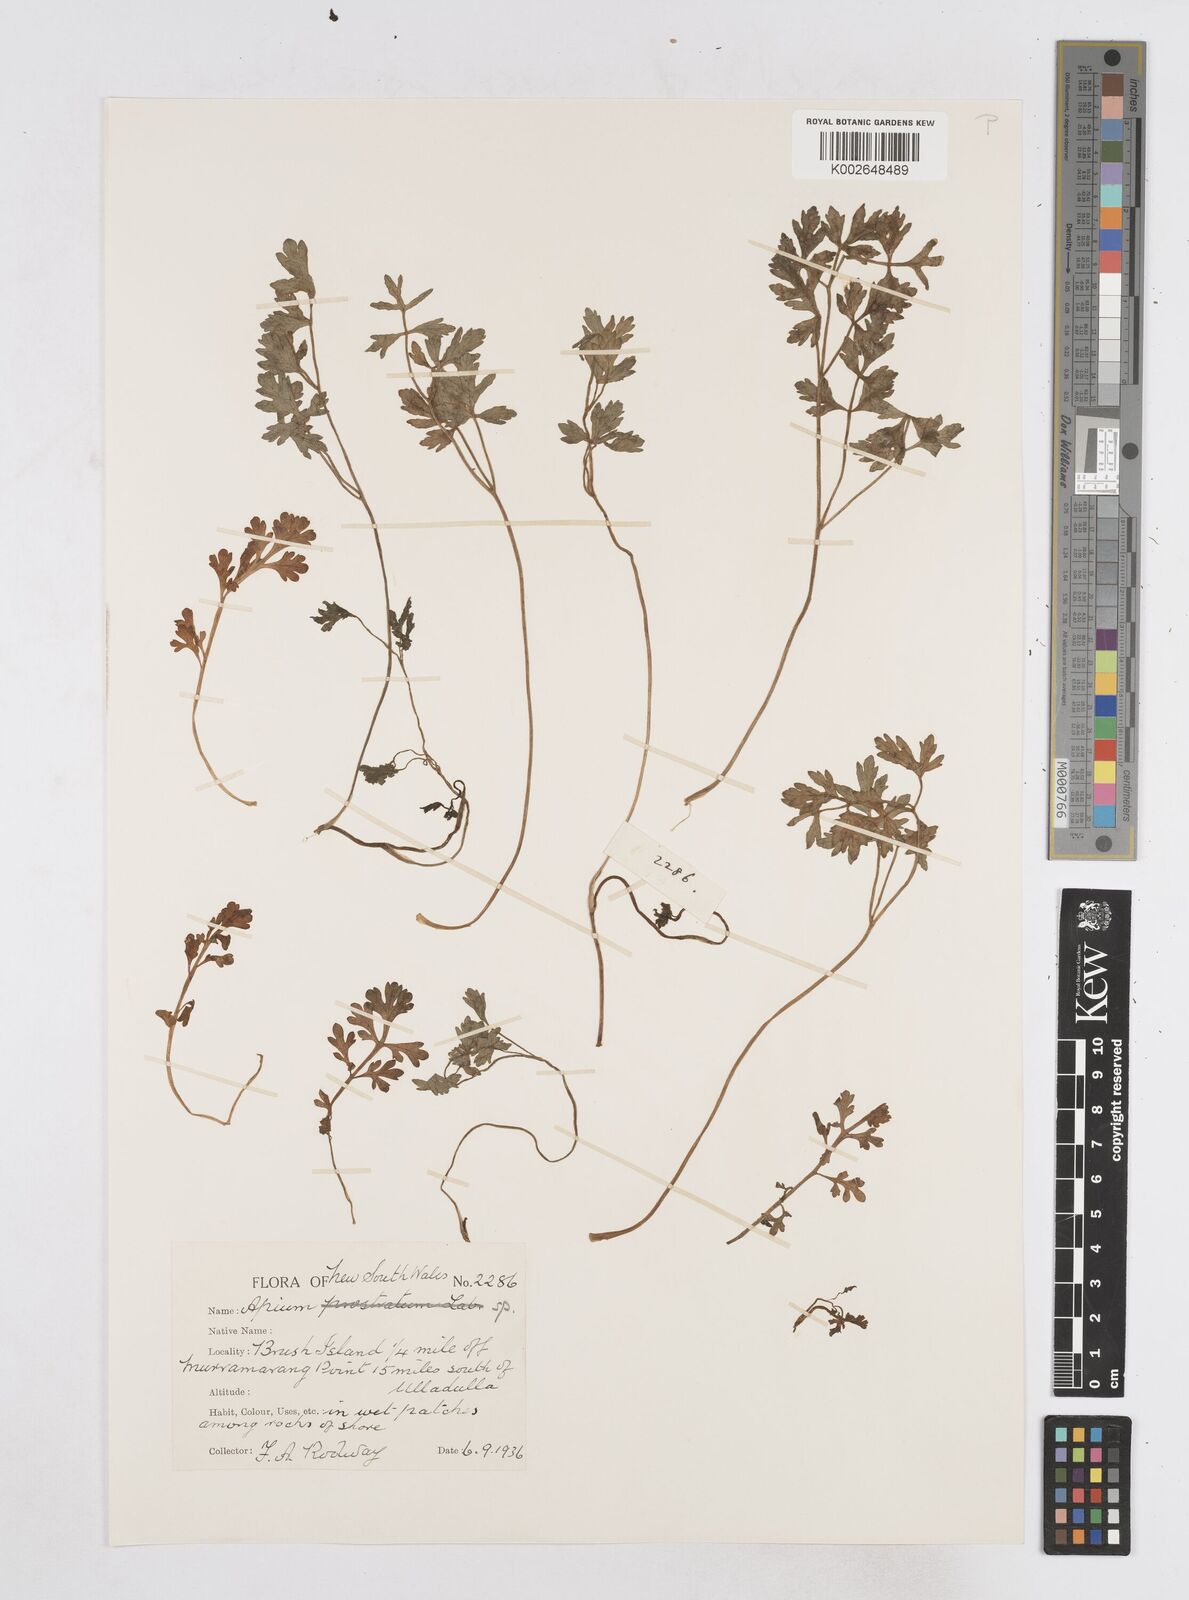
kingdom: Plantae
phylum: Tracheophyta
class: Magnoliopsida
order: Apiales
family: Apiaceae
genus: Apium
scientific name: Apium prostratum
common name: Prostrate marshwort
